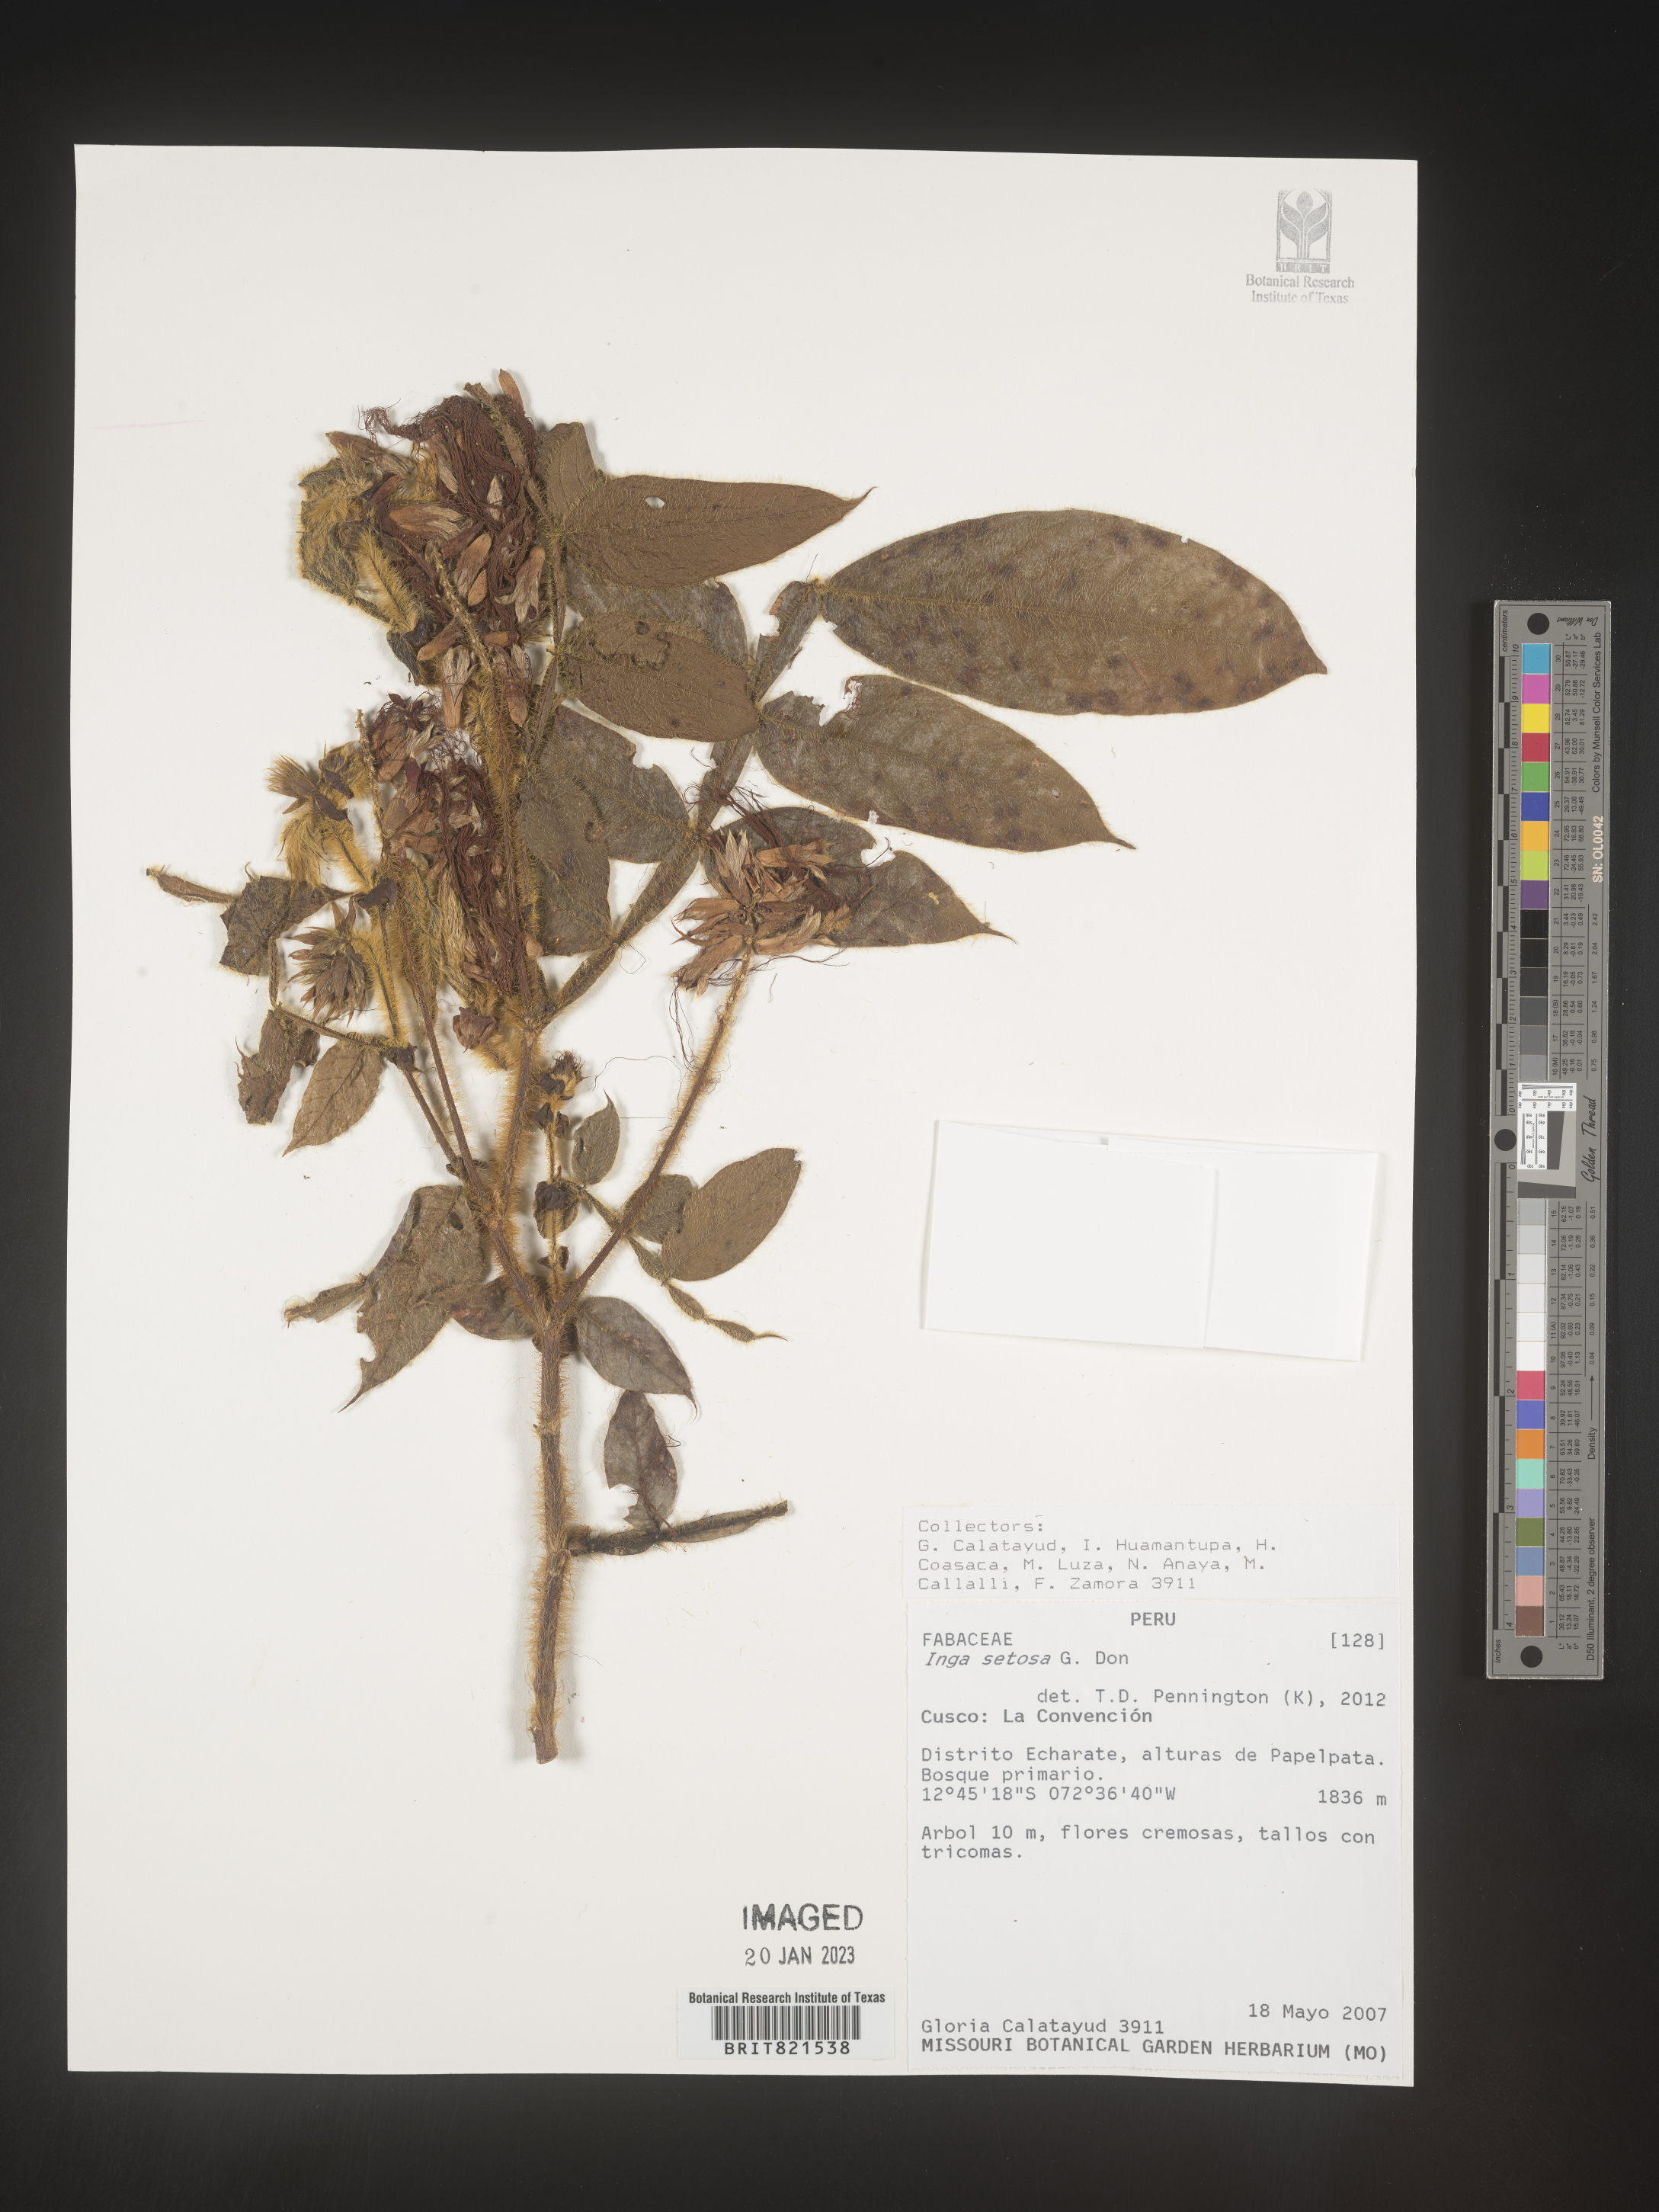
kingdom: Plantae
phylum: Tracheophyta
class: Magnoliopsida
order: Fabales
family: Fabaceae
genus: Inga
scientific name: Inga
